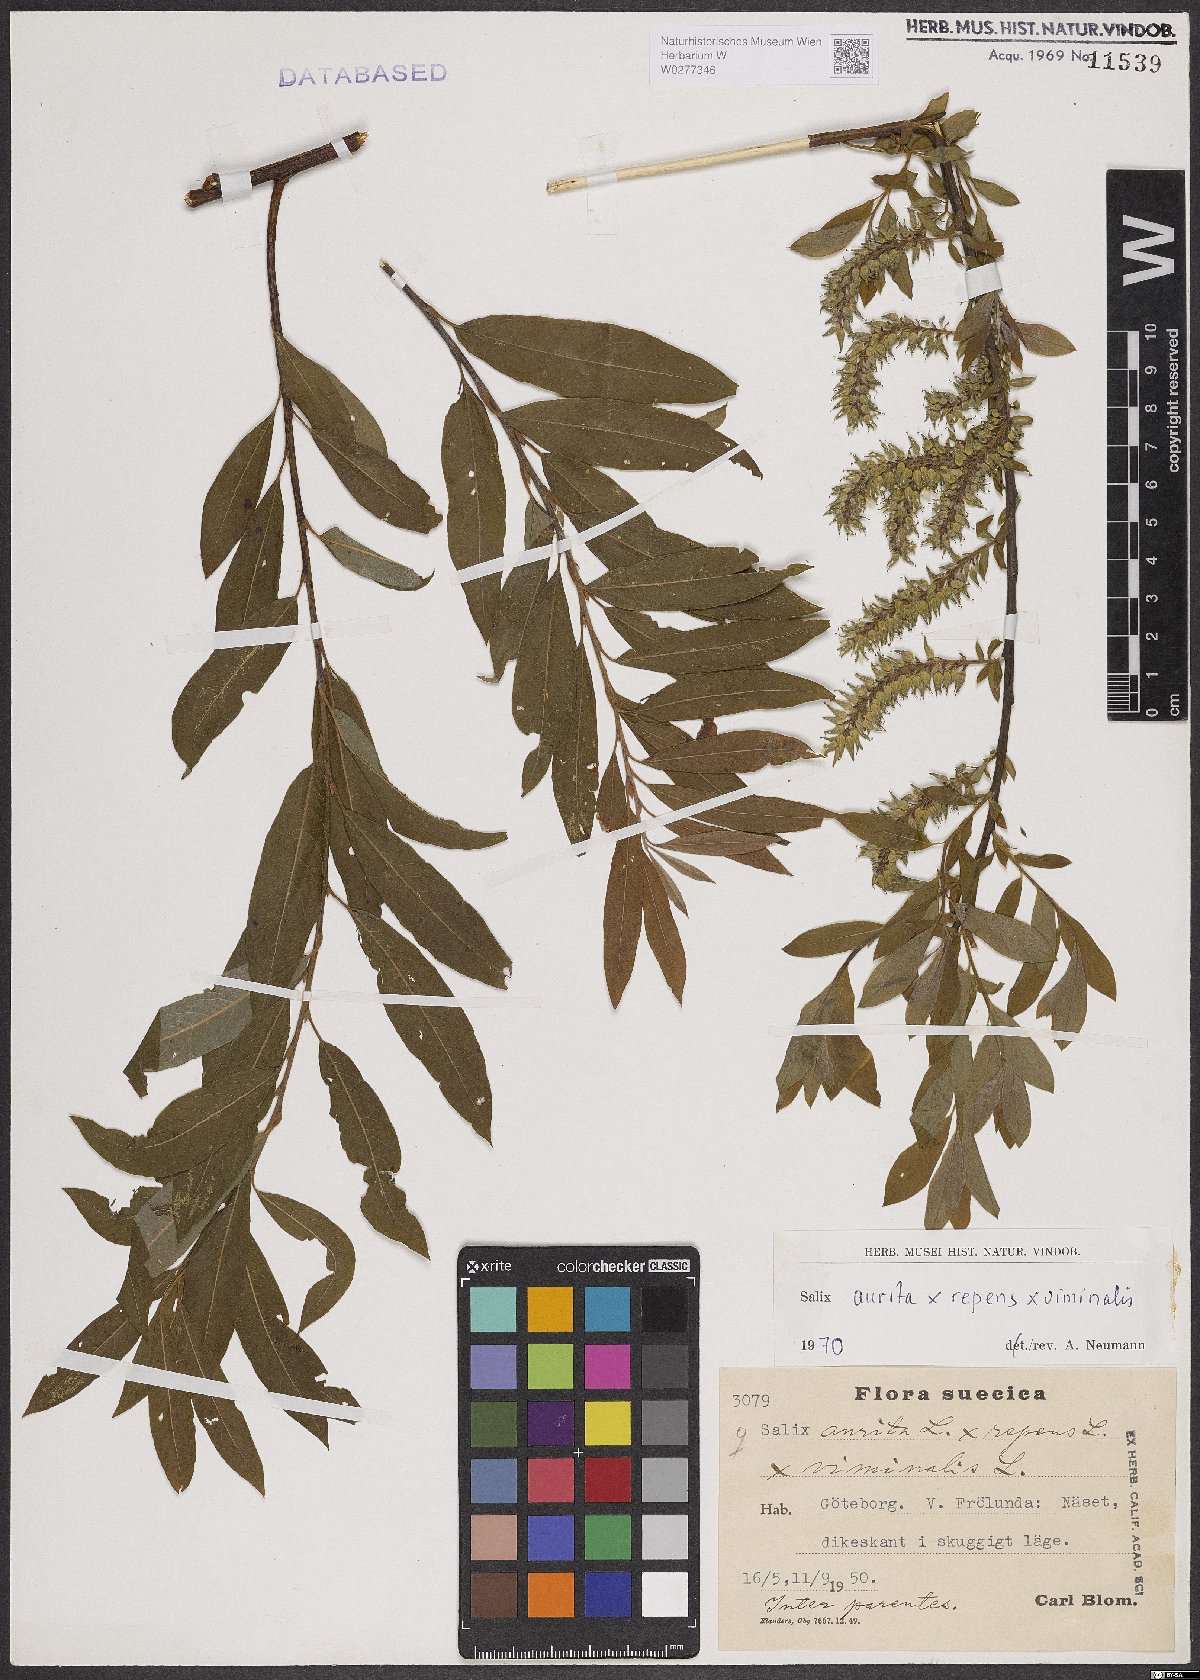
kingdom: Plantae
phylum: Tracheophyta
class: Magnoliopsida
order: Malpighiales
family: Salicaceae
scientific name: Salicaceae
